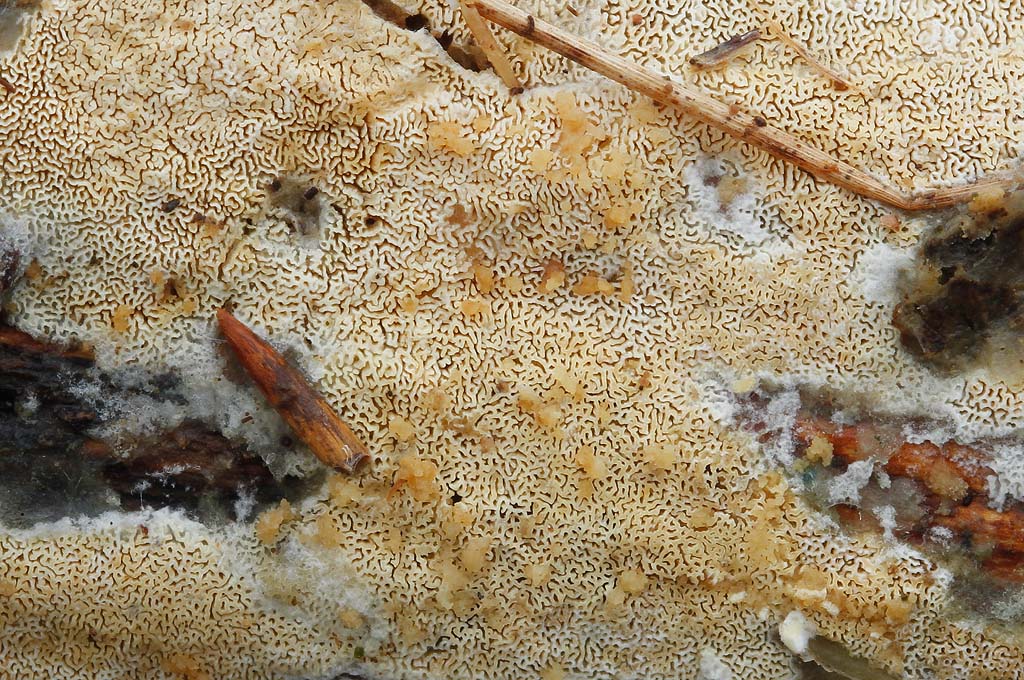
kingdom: Fungi
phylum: Basidiomycota
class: Agaricomycetes
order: Hymenochaetales
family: Schizoporaceae
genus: Xylodon
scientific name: Xylodon subtropicus
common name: labyrint-tandsvamp
